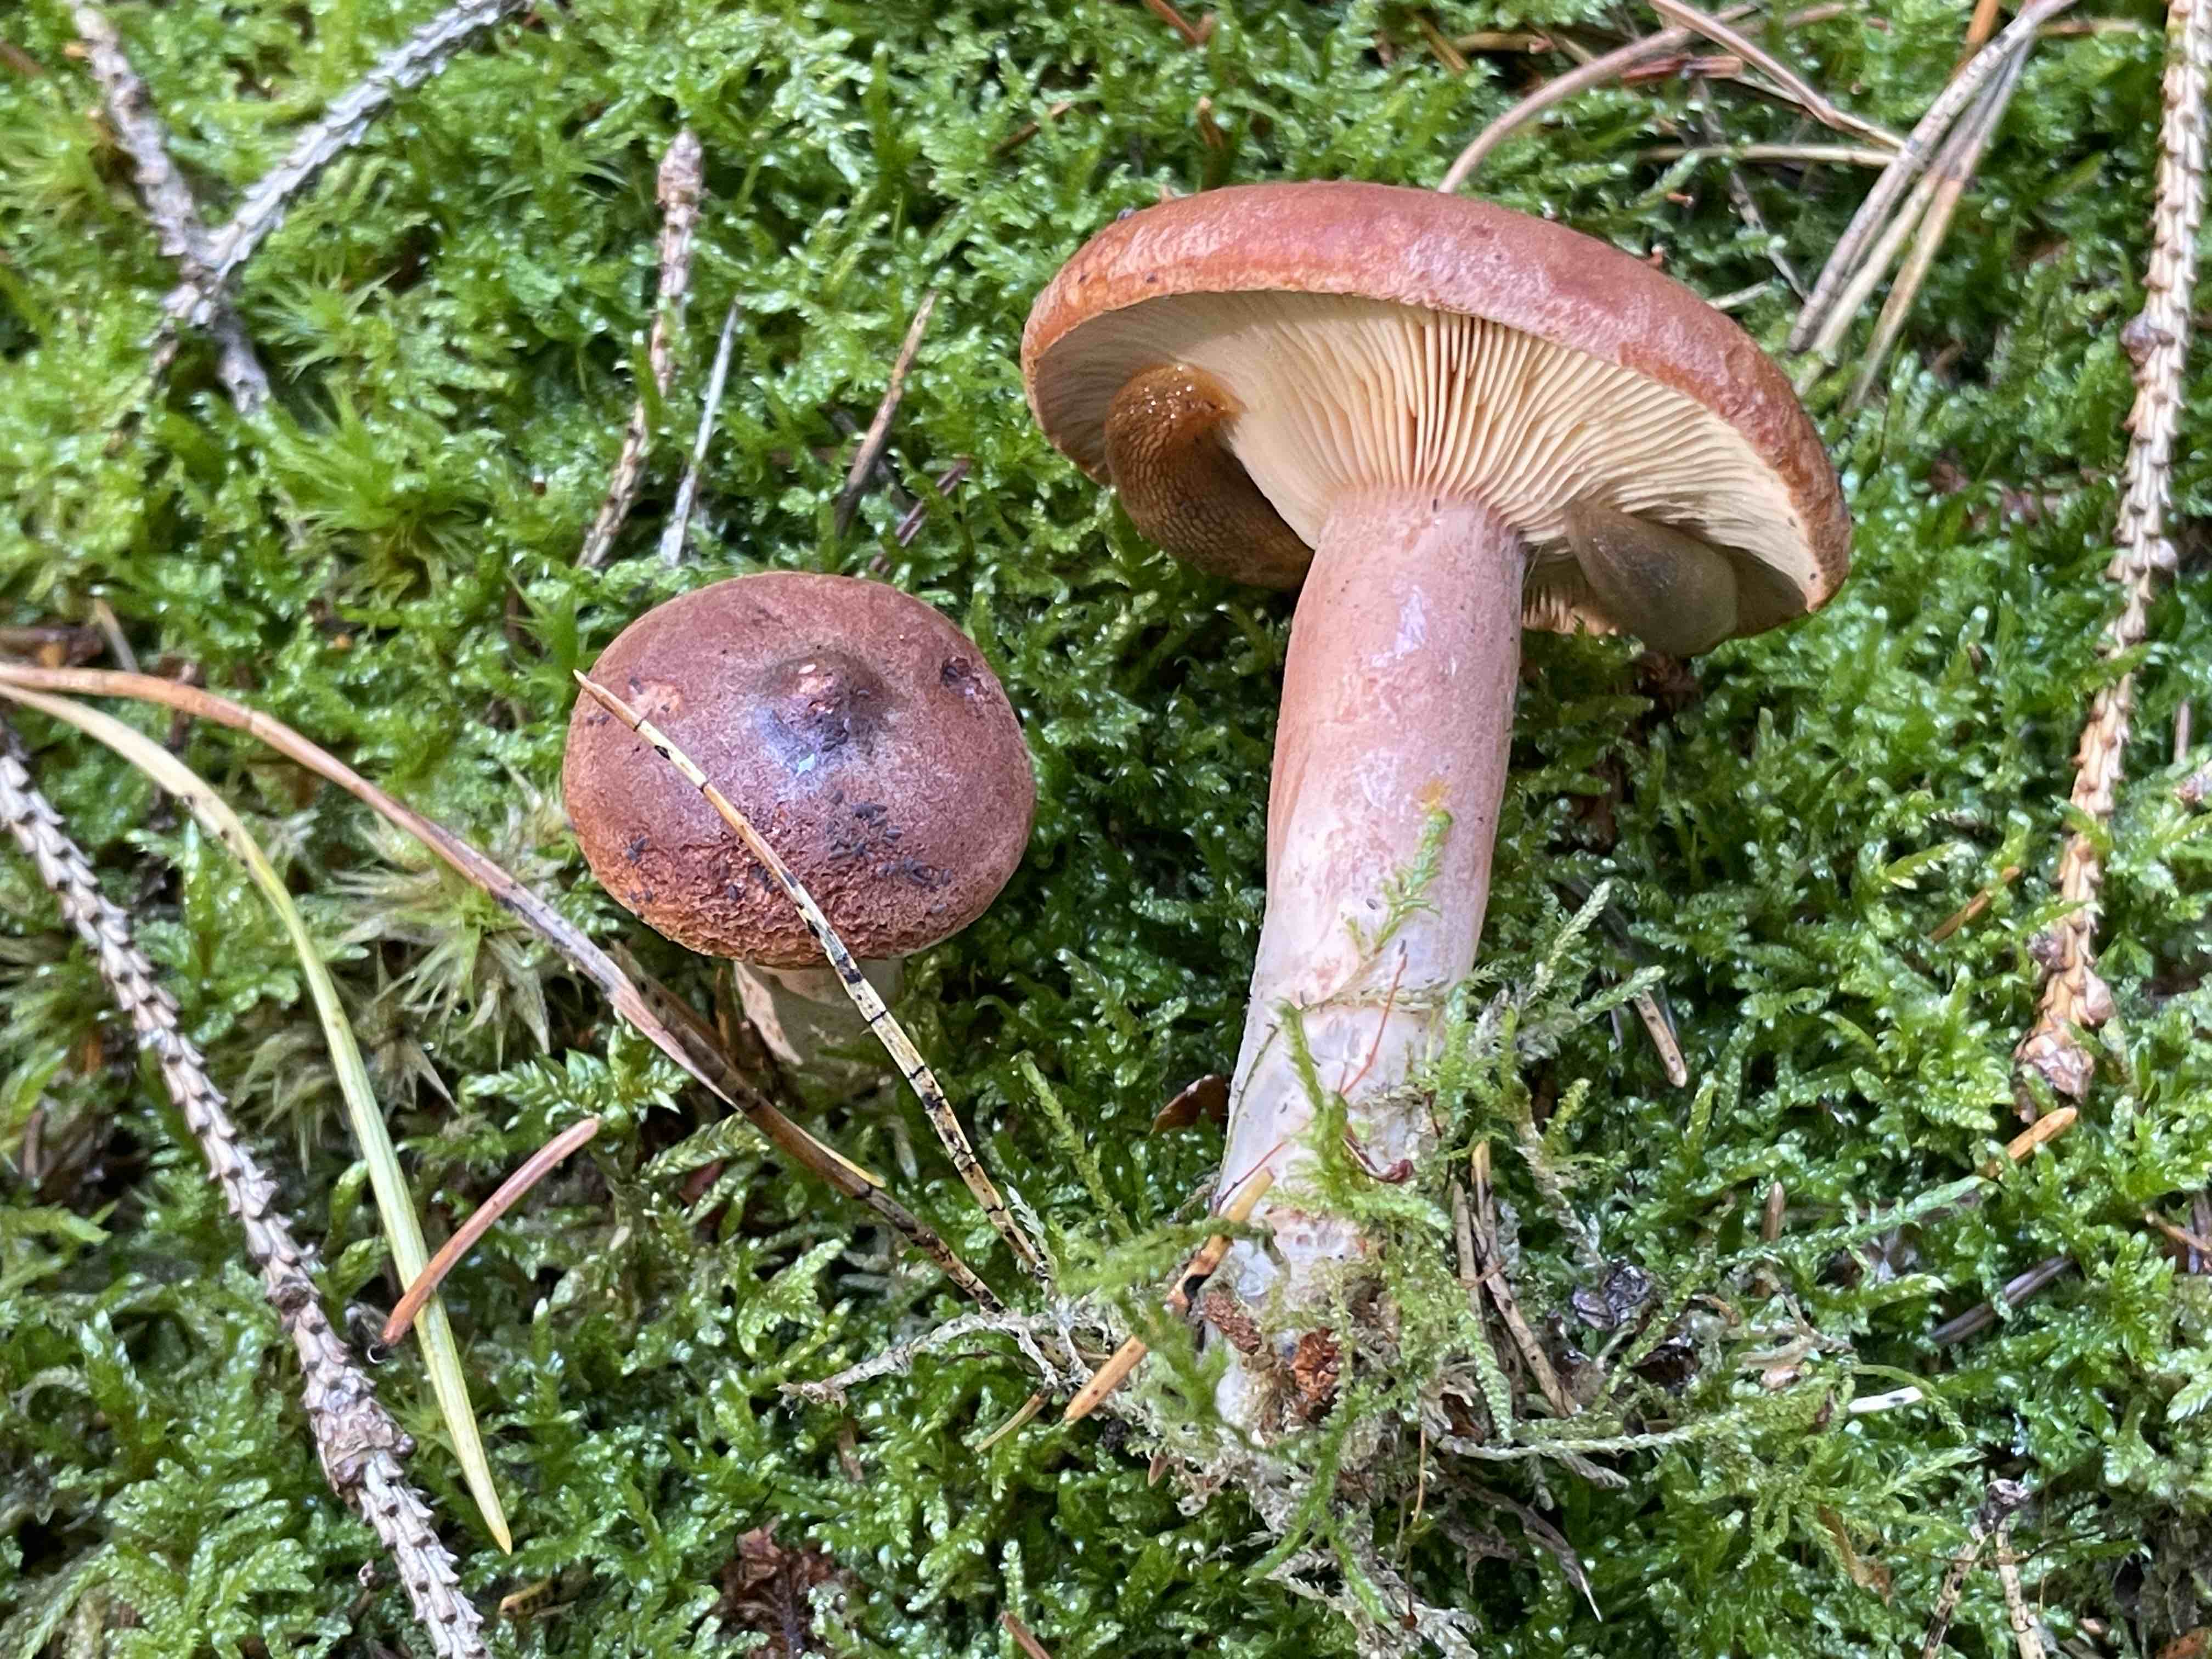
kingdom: Fungi
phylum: Basidiomycota
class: Agaricomycetes
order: Russulales
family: Russulaceae
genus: Lactarius
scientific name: Lactarius rufus
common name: rødbrun mælkehat
